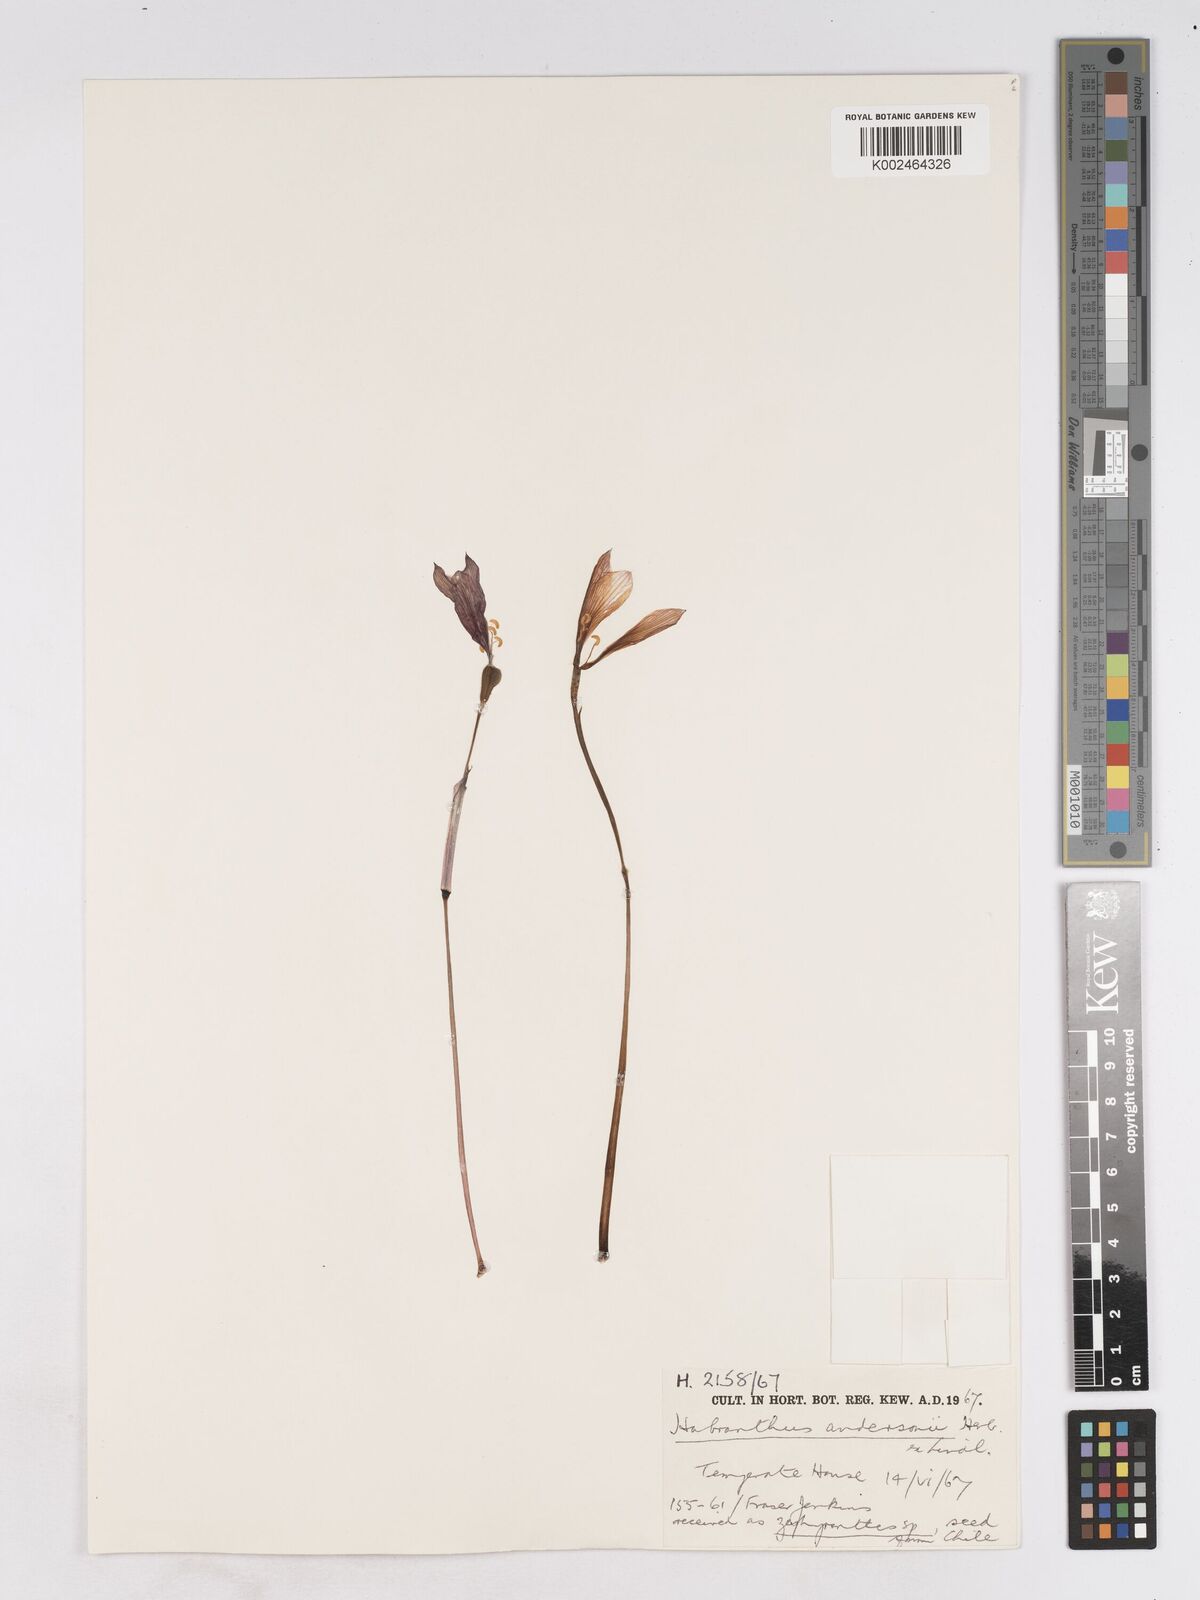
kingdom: Plantae
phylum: Tracheophyta
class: Liliopsida
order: Asparagales
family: Amaryllidaceae
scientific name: Amaryllidaceae
